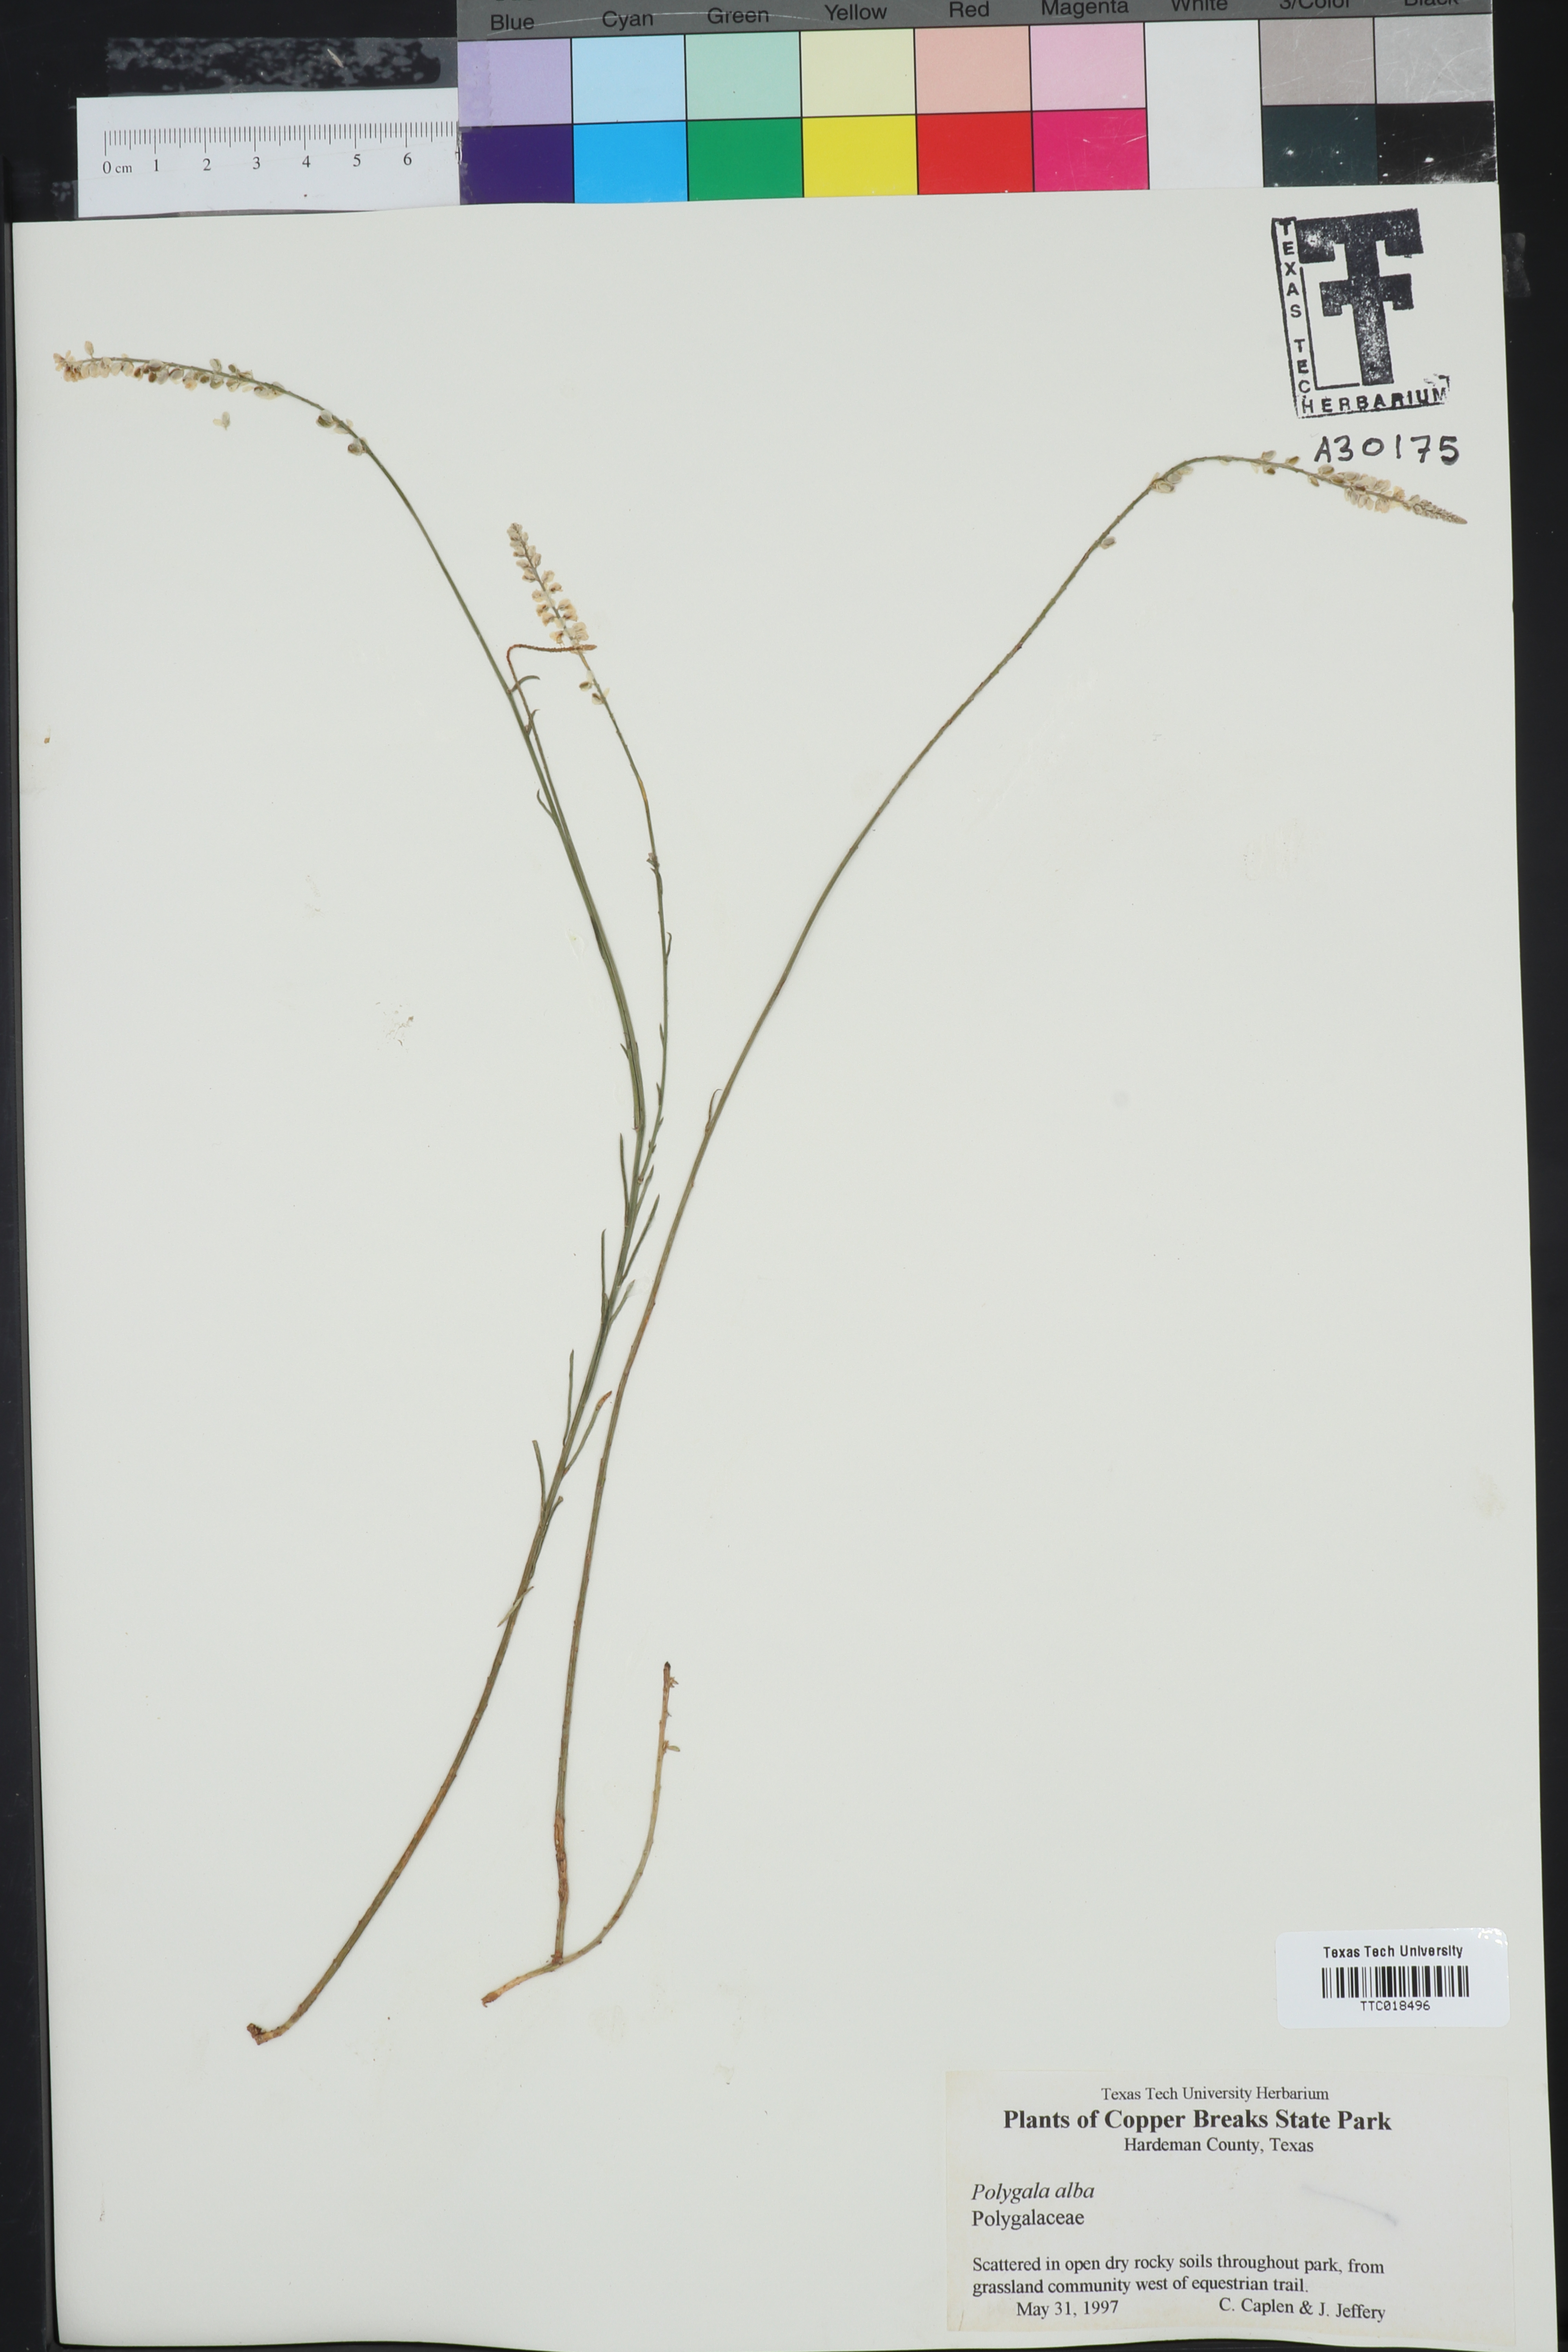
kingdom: Plantae
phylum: Tracheophyta
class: Magnoliopsida
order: Fabales
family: Polygalaceae
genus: Polygala
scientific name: Polygala alba
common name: White milkwort
